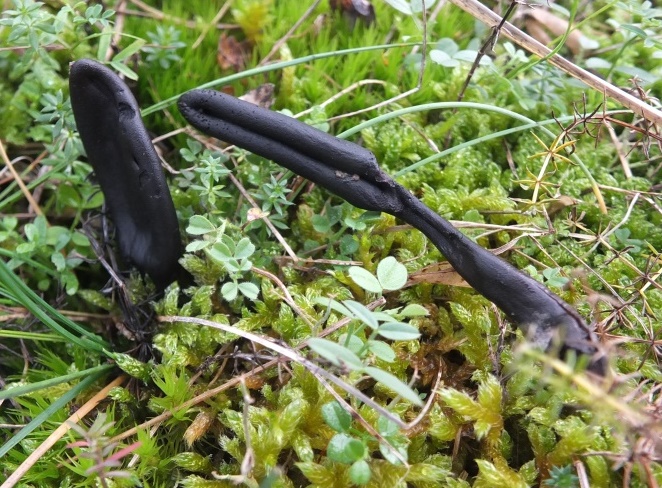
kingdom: Fungi
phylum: Ascomycota
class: Geoglossomycetes
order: Geoglossales
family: Geoglossaceae
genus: Geoglossum
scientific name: Geoglossum umbratile
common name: slank jordtunge
